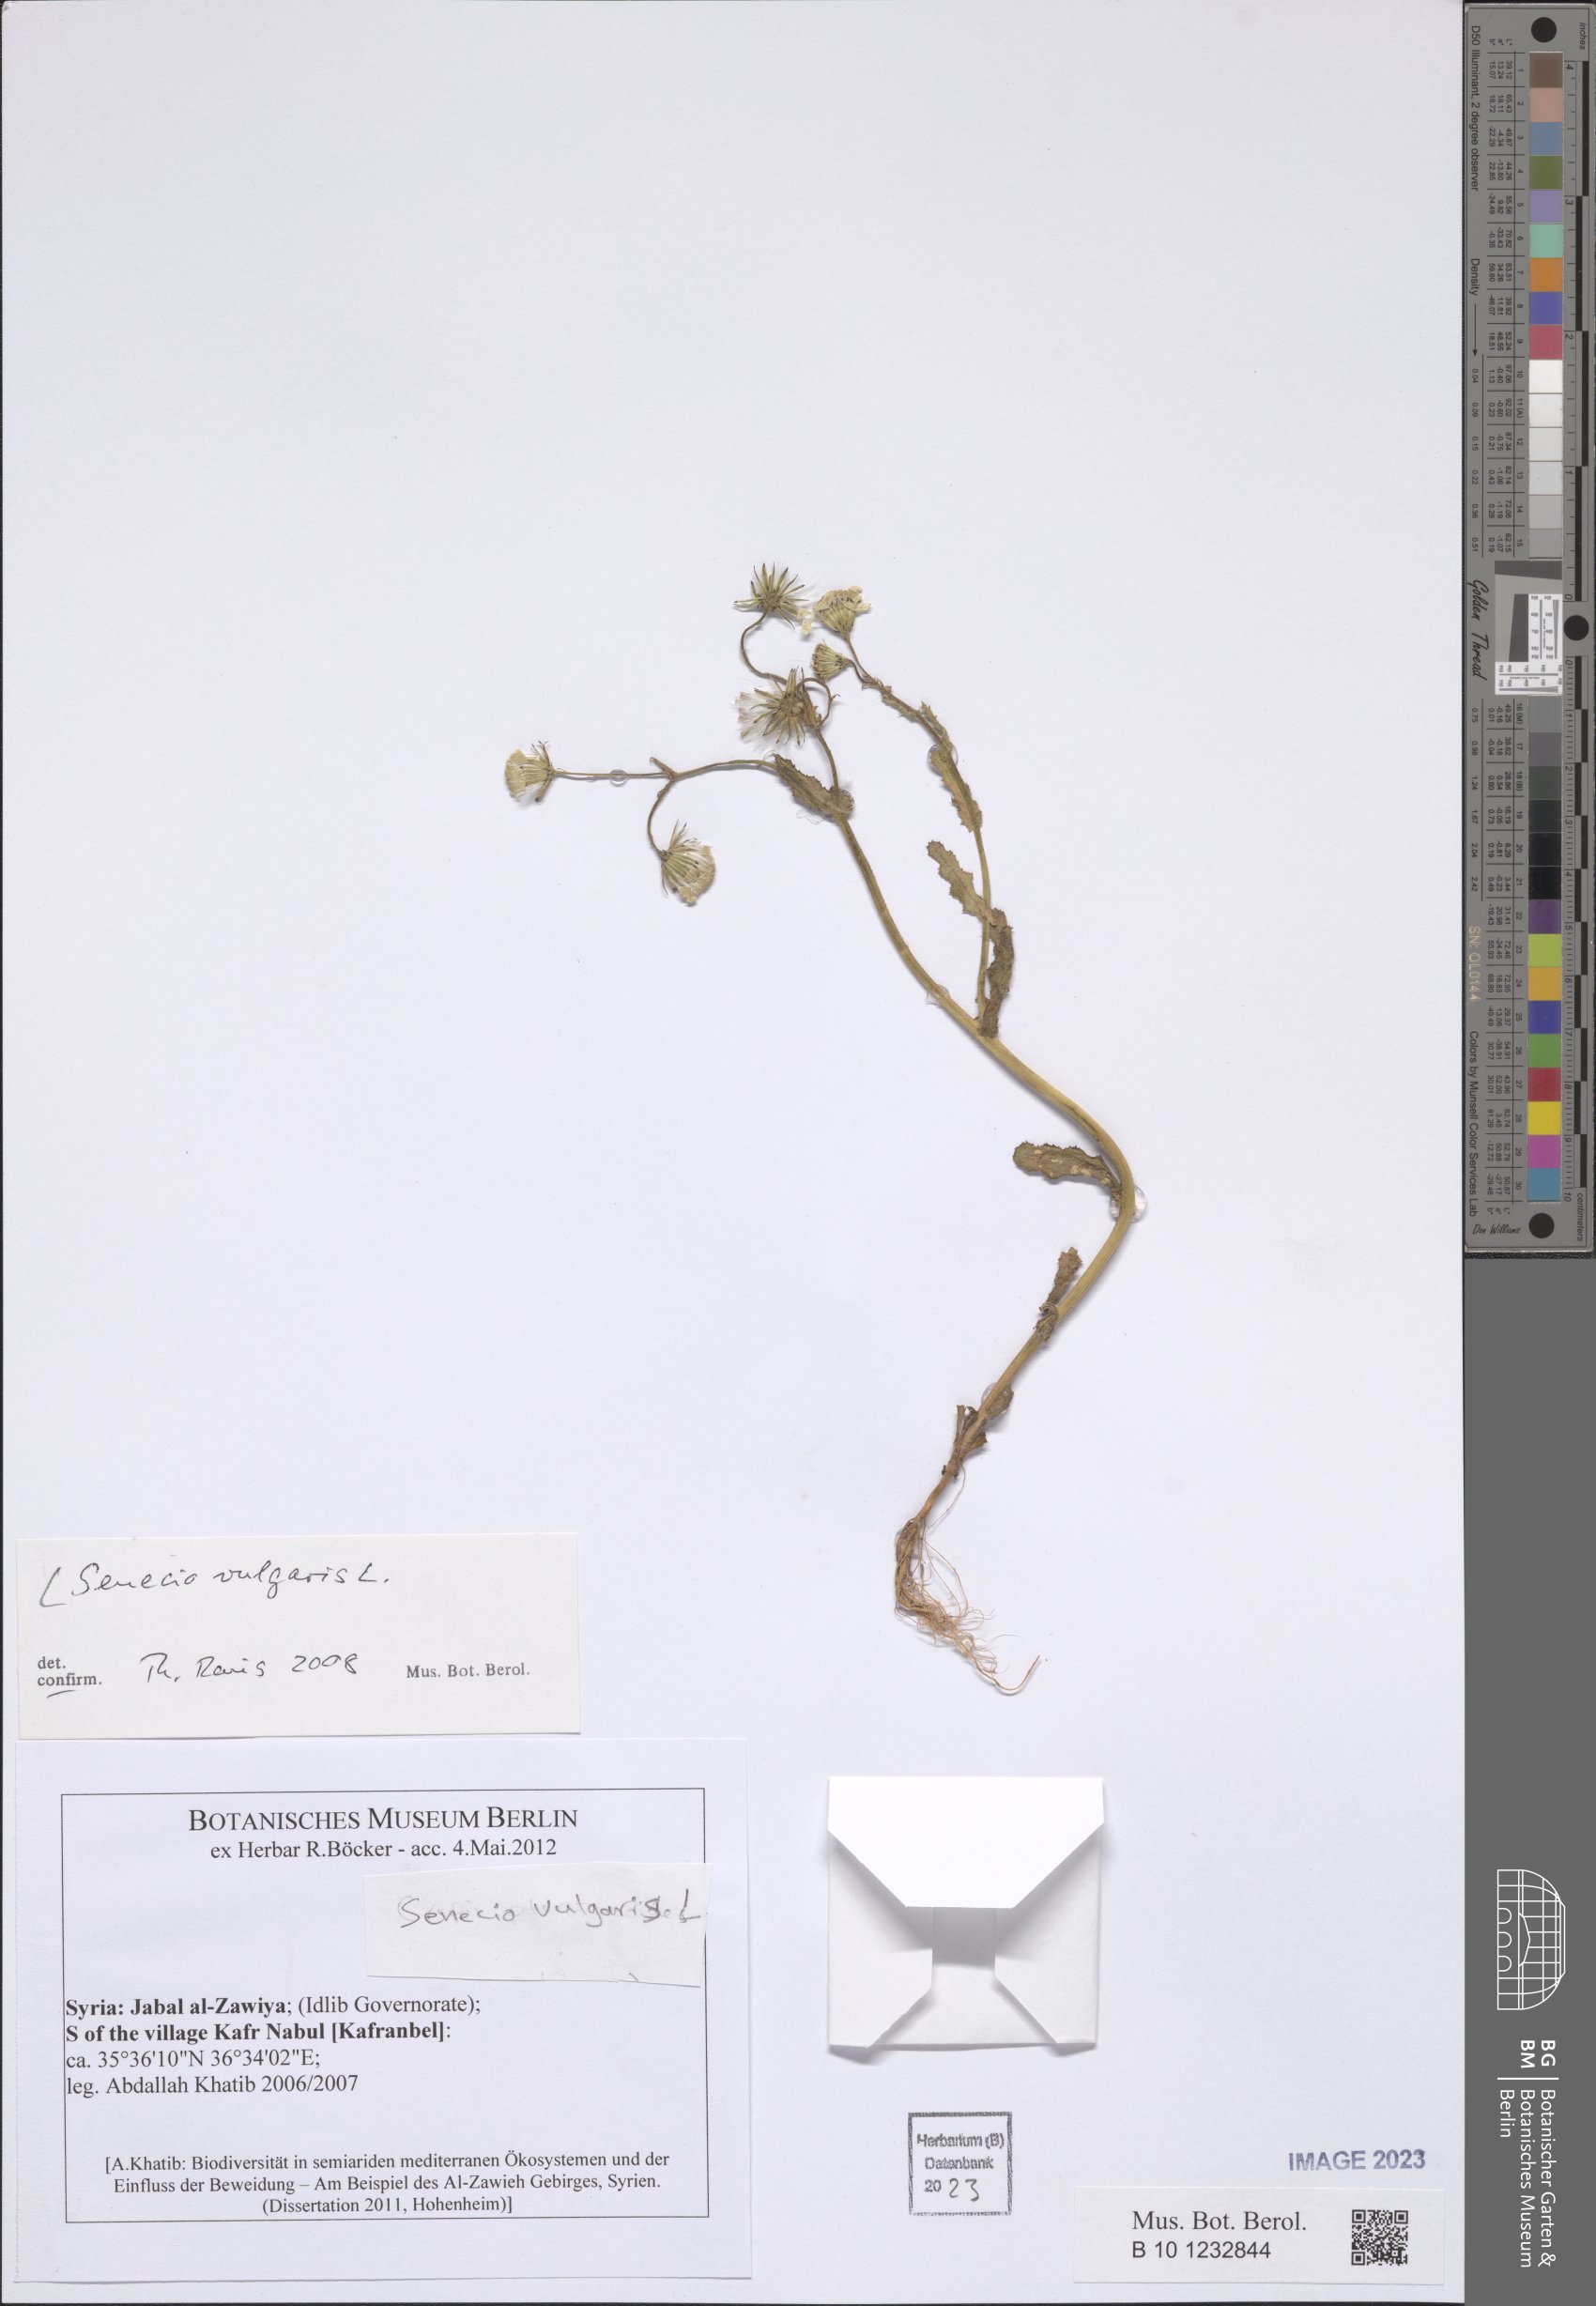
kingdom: Plantae
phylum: Tracheophyta
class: Magnoliopsida
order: Asterales
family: Asteraceae
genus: Senecio
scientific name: Senecio vulgaris
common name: Old-man-in-the-spring
